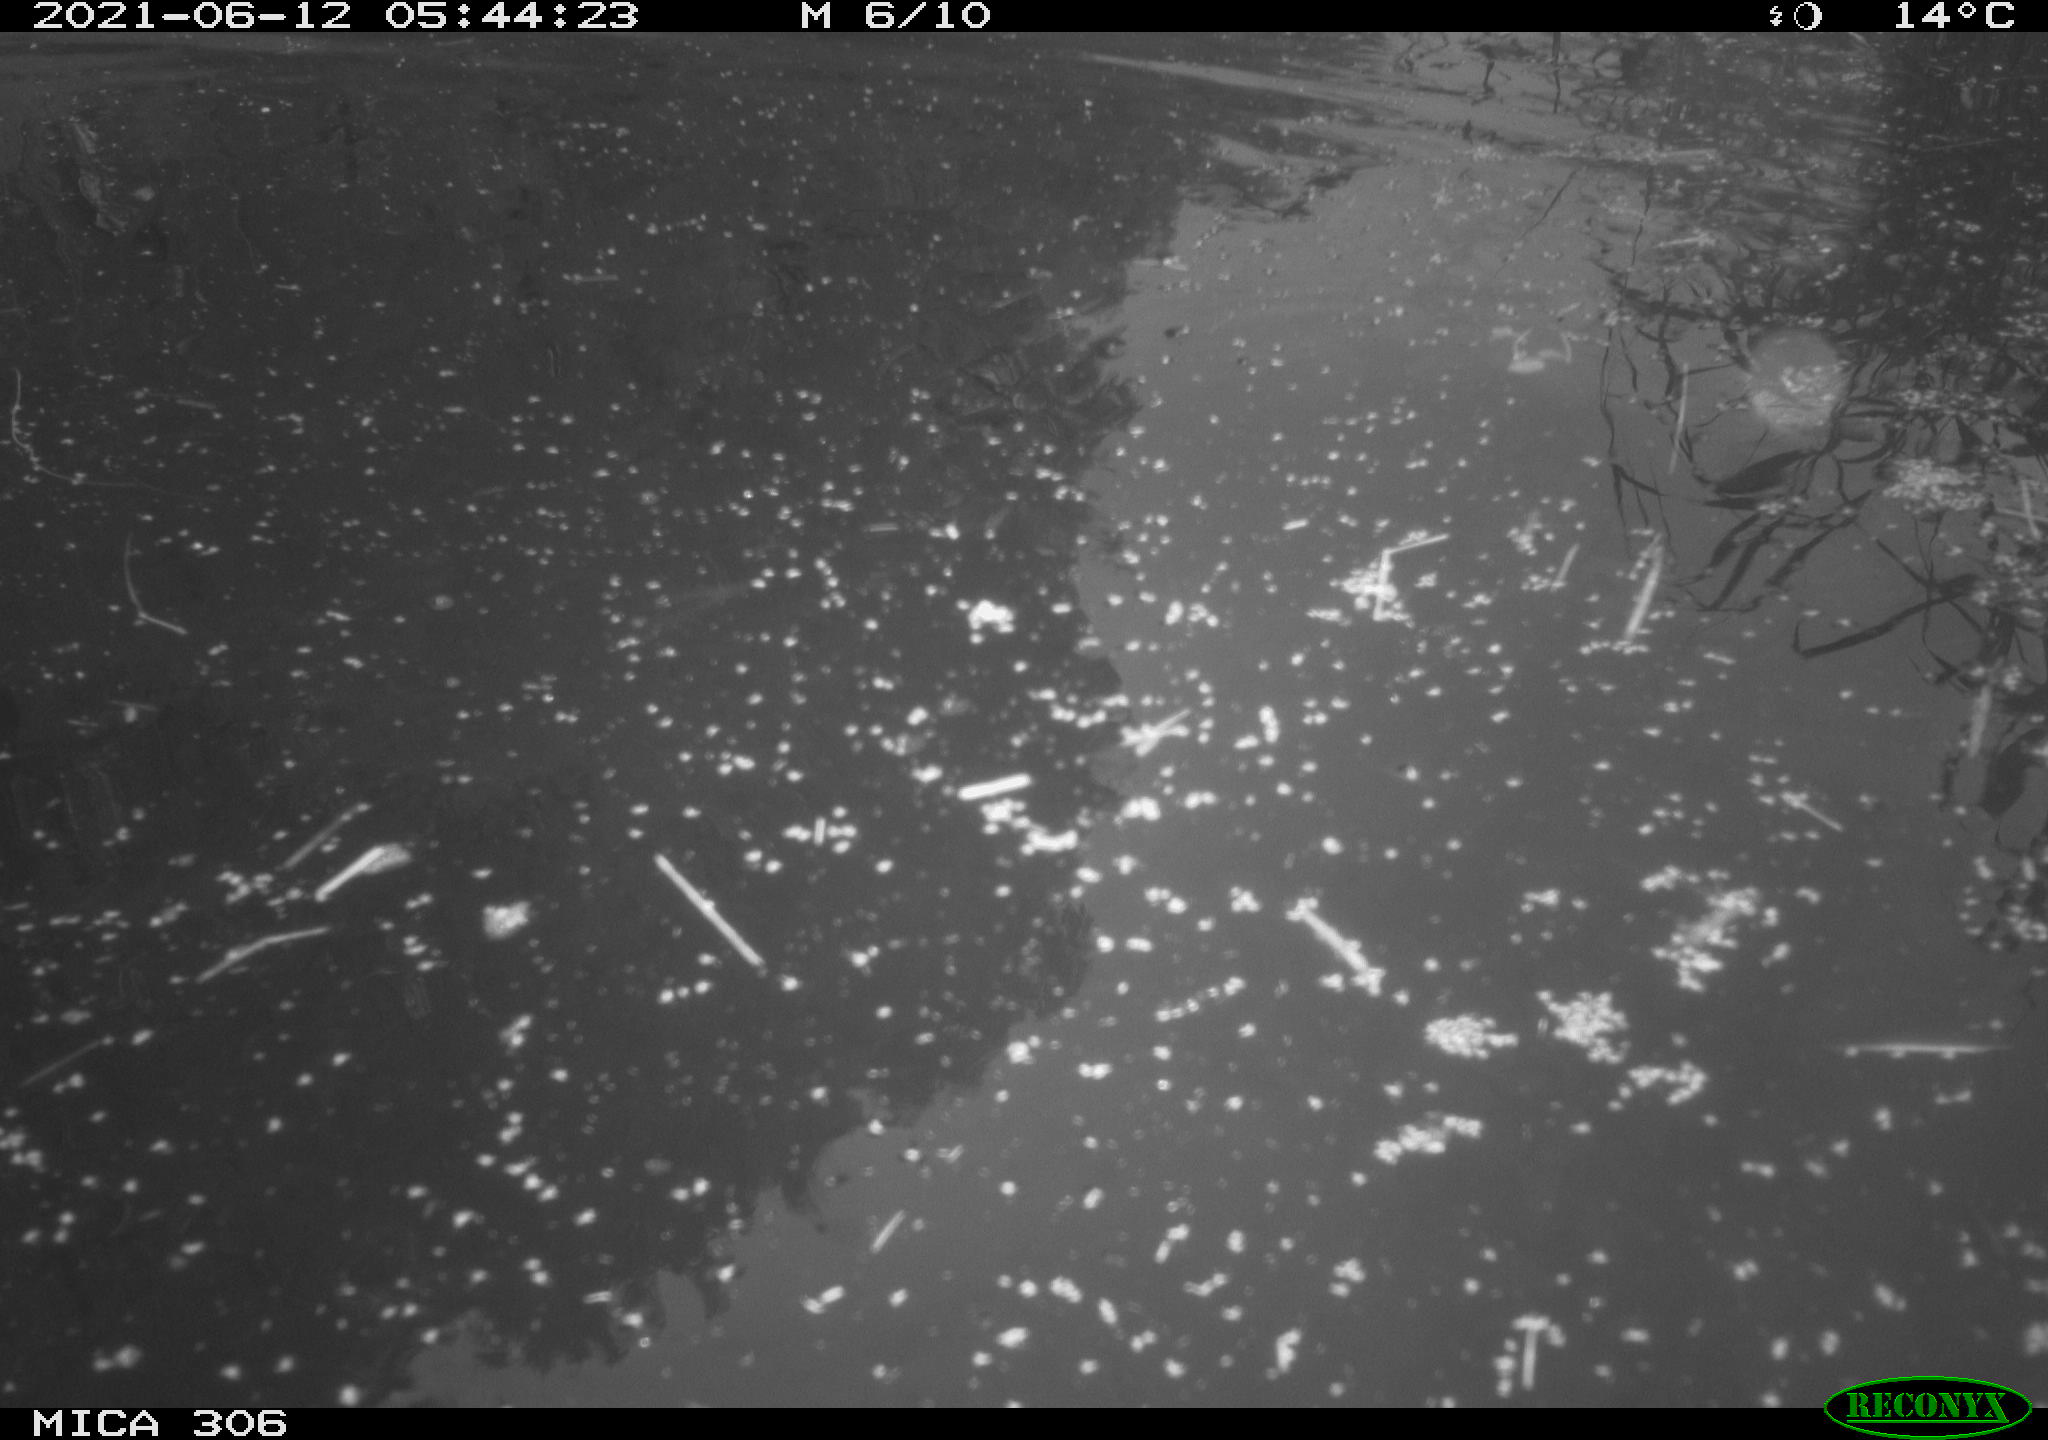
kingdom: Animalia
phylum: Chordata
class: Aves
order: Gruiformes
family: Rallidae
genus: Gallinula
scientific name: Gallinula chloropus
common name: Common moorhen
